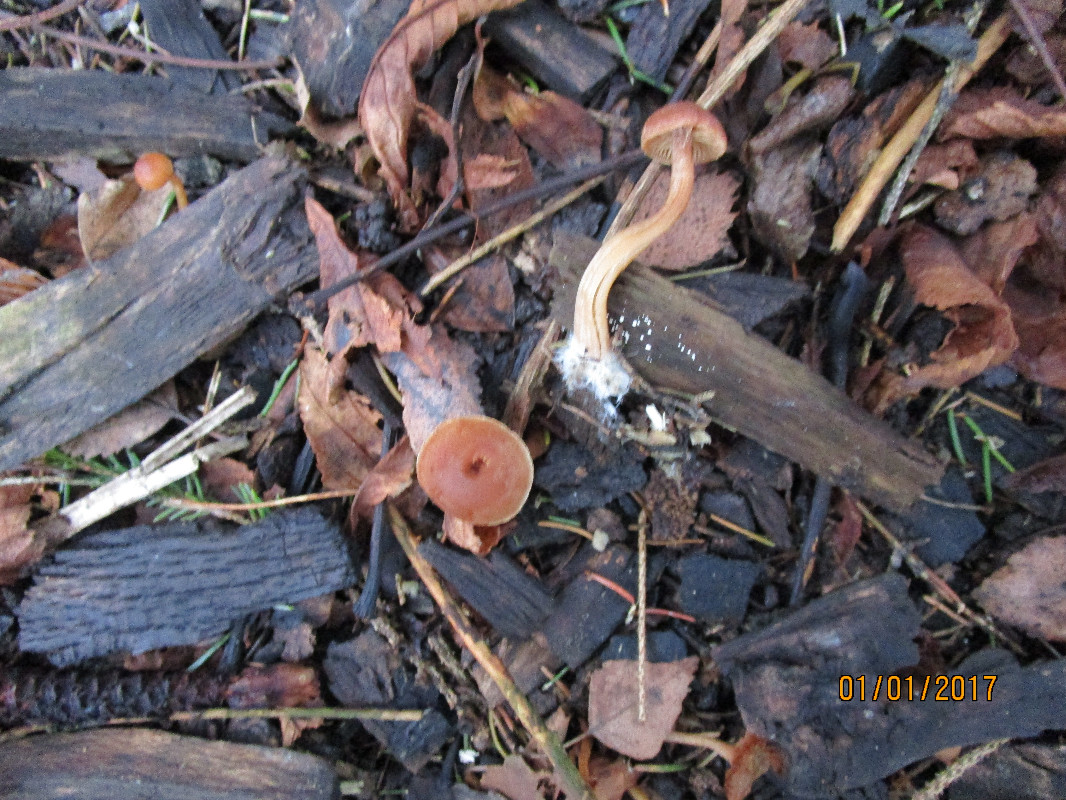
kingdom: Fungi
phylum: Basidiomycota
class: Agaricomycetes
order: Agaricales
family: Tubariaceae
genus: Tubaria
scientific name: Tubaria furfuracea
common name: kliddet fnughat
